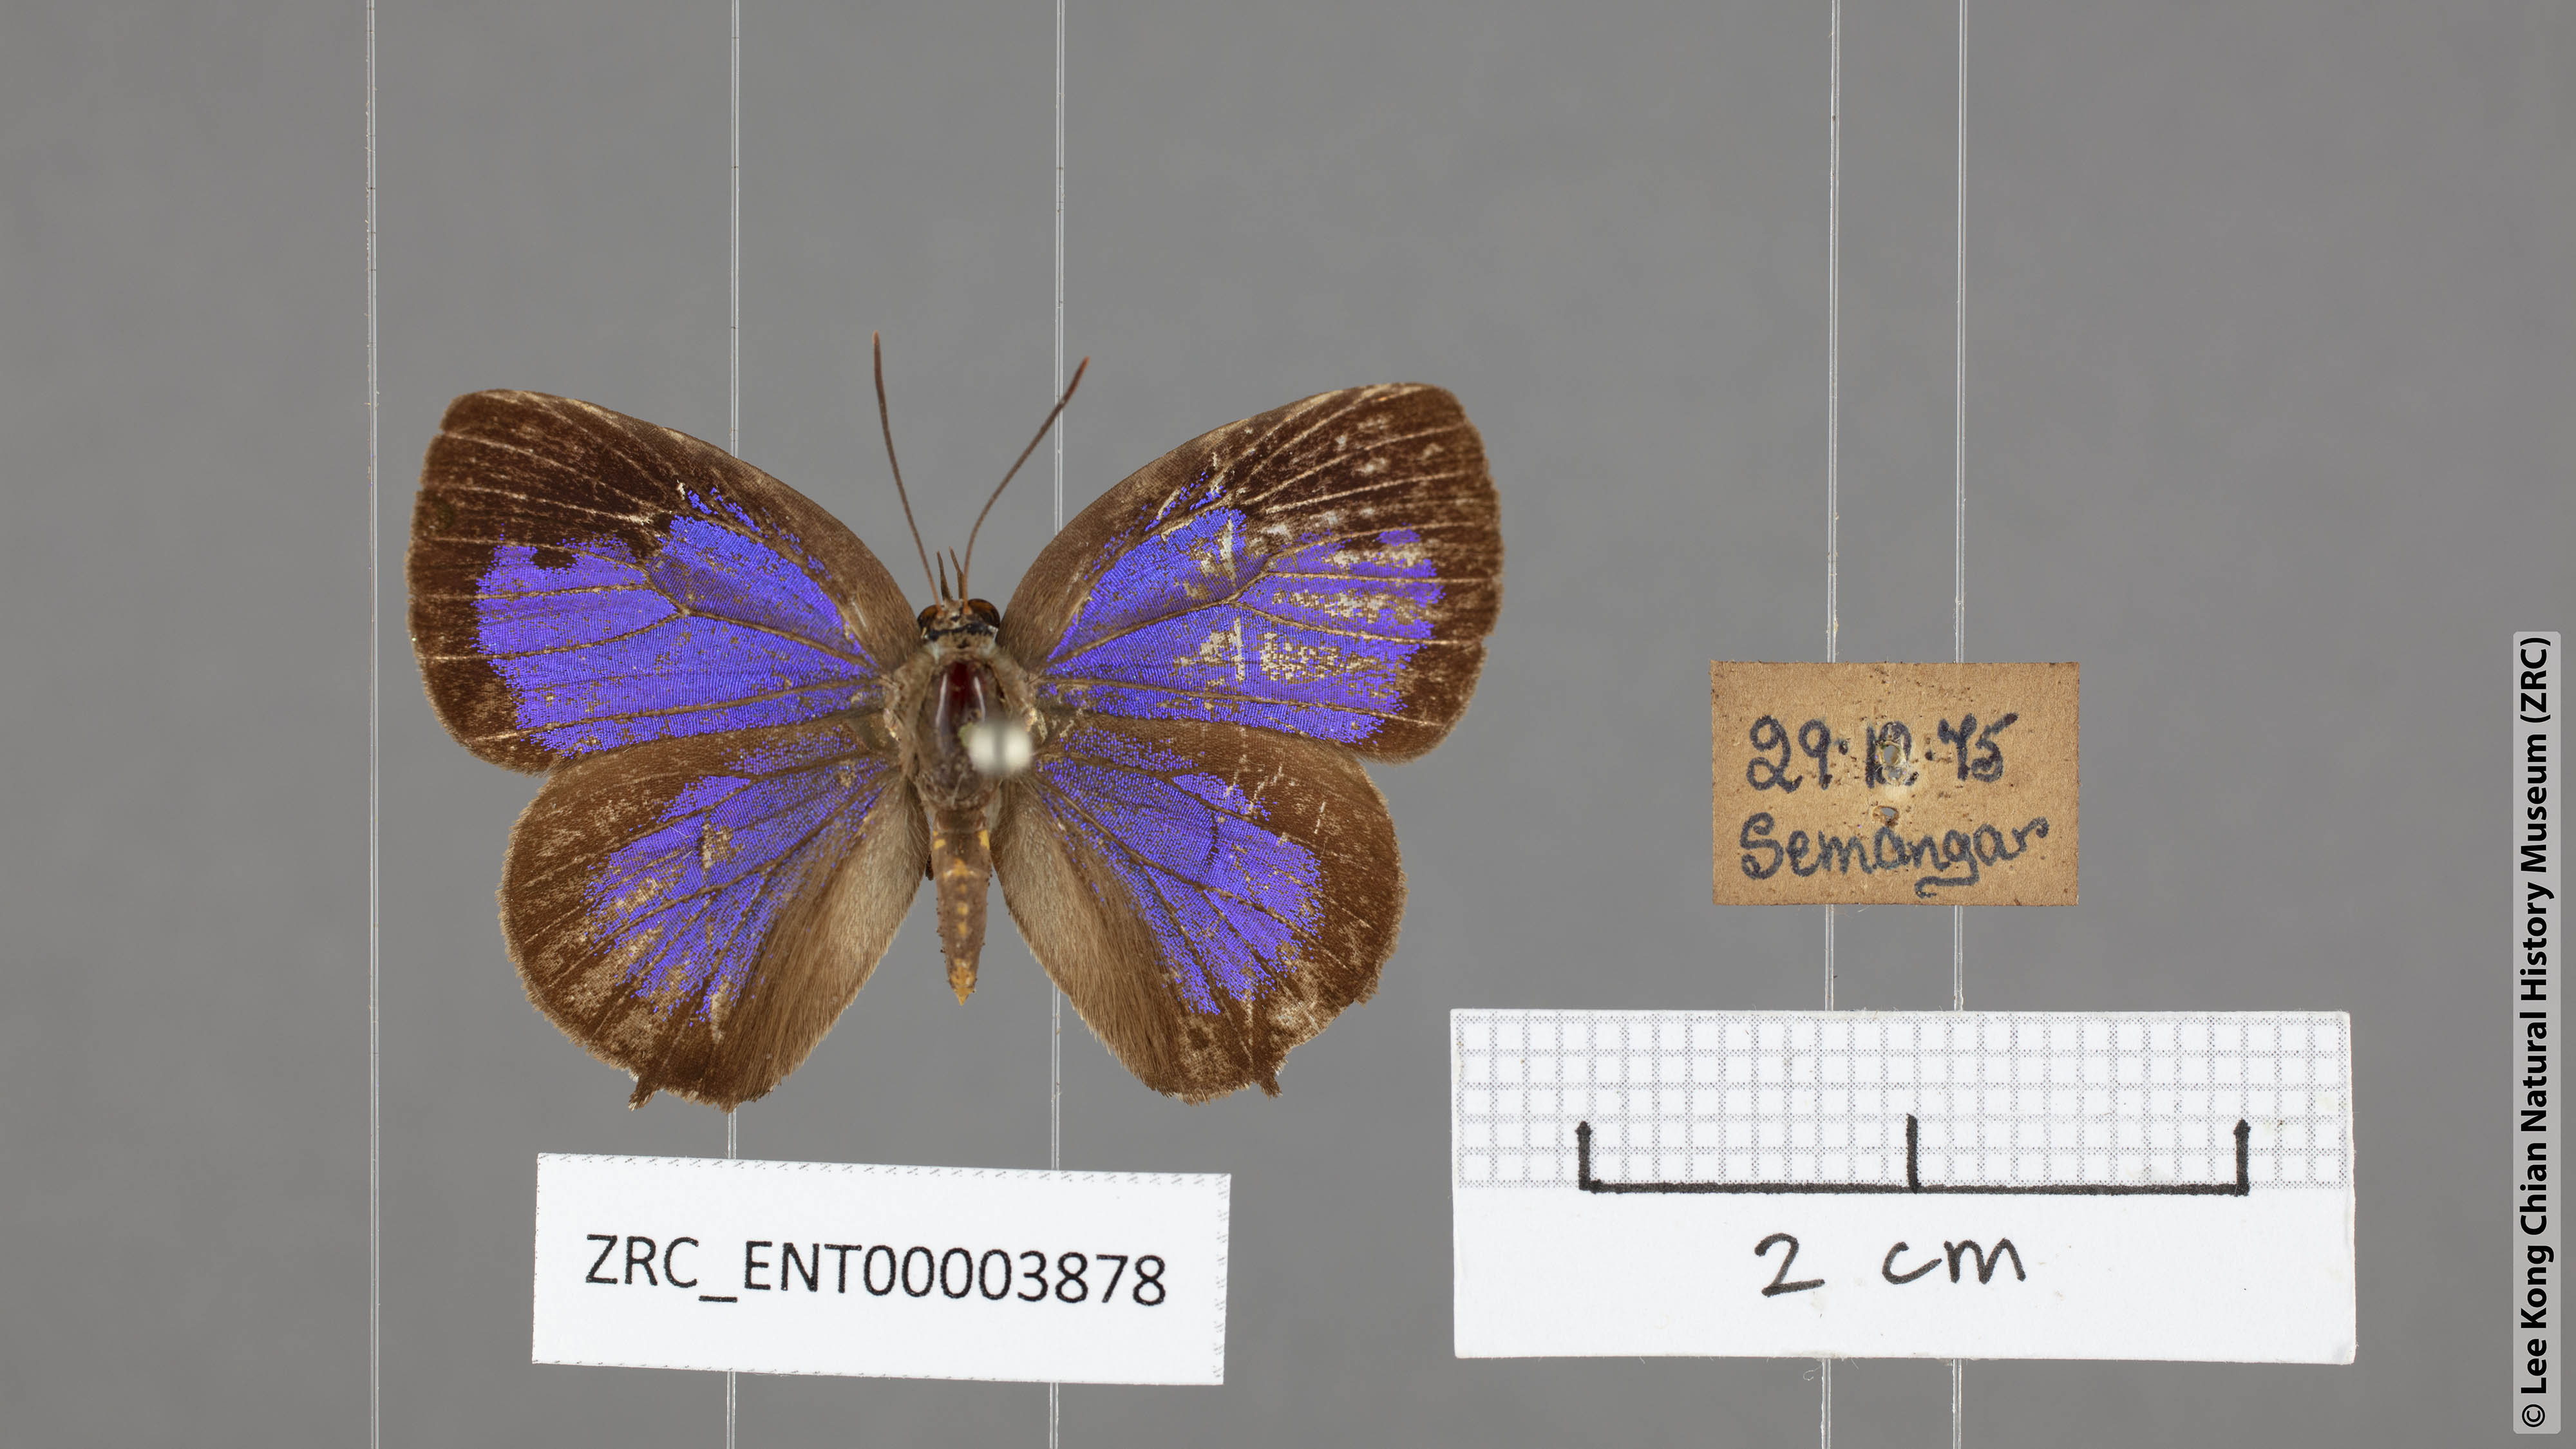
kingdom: Animalia
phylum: Arthropoda
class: Insecta
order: Lepidoptera
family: Lycaenidae
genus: Arhopala
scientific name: Arhopala aurea
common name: Long-celled oakblue
